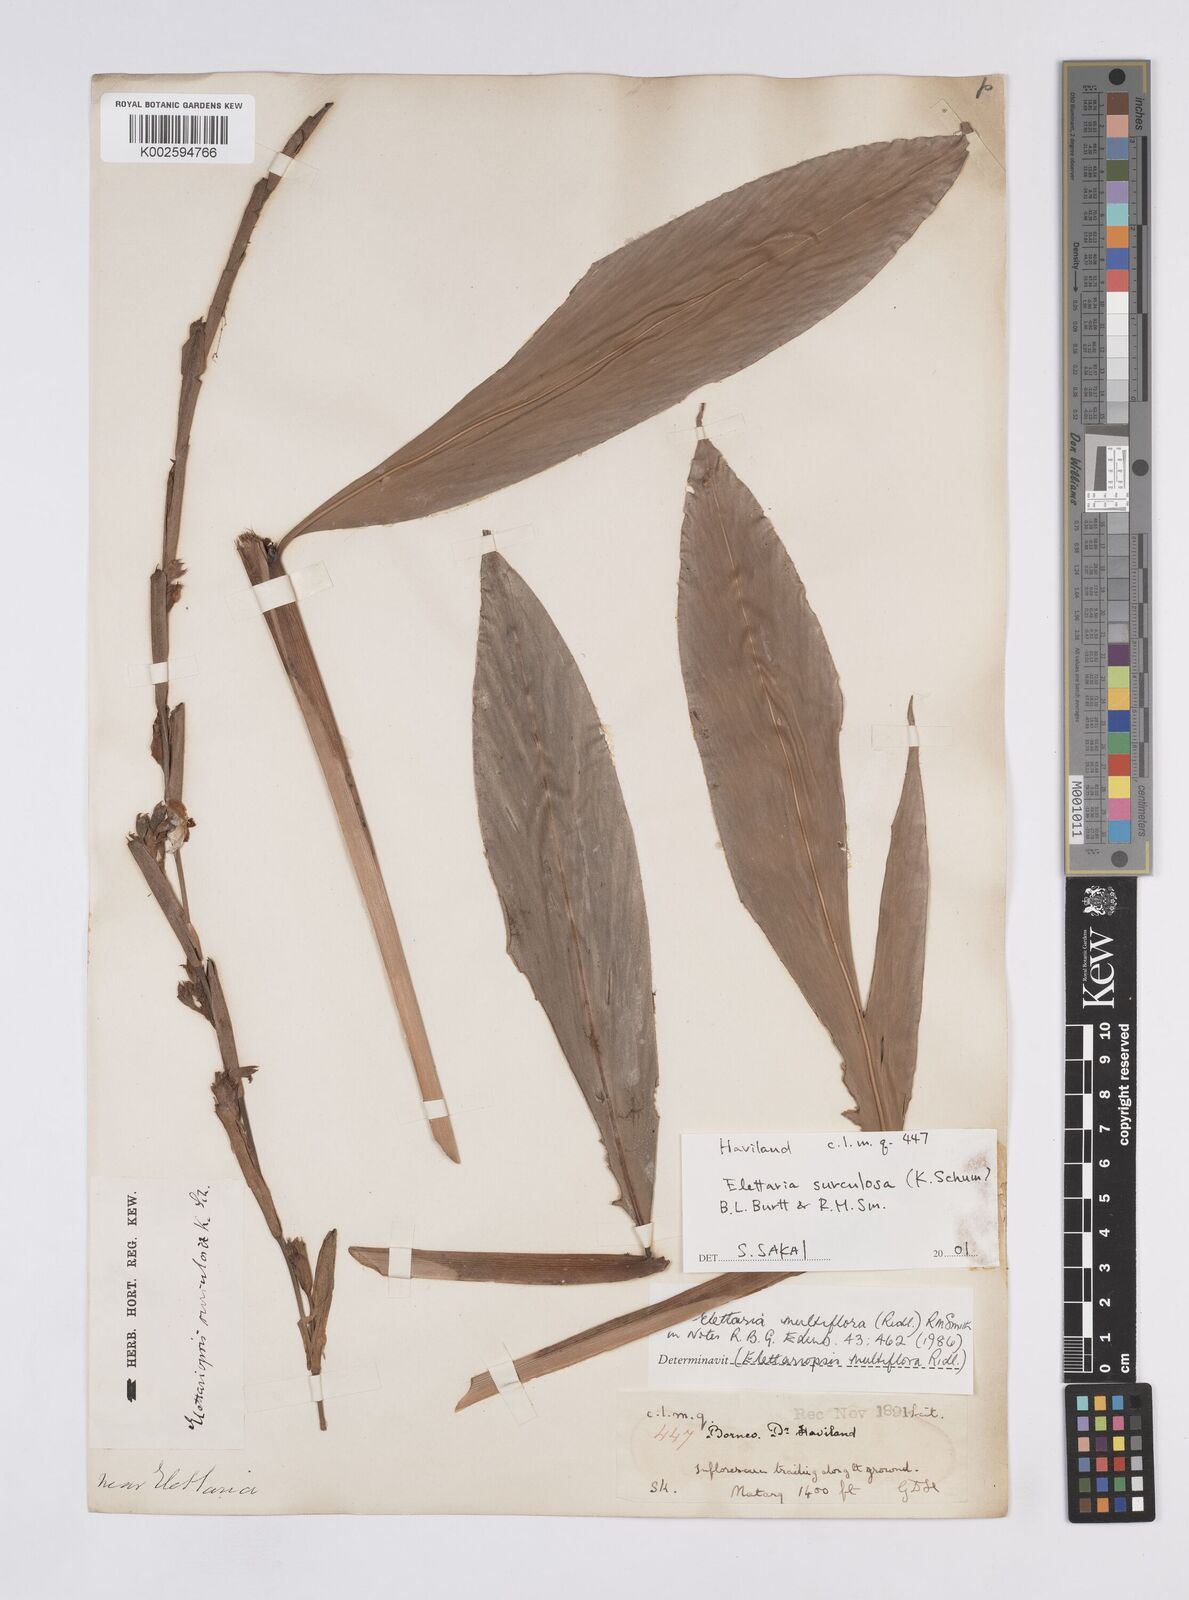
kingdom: Plantae
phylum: Tracheophyta
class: Liliopsida
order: Zingiberales
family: Zingiberaceae
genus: Sulettaria
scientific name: Sulettaria multiflora
